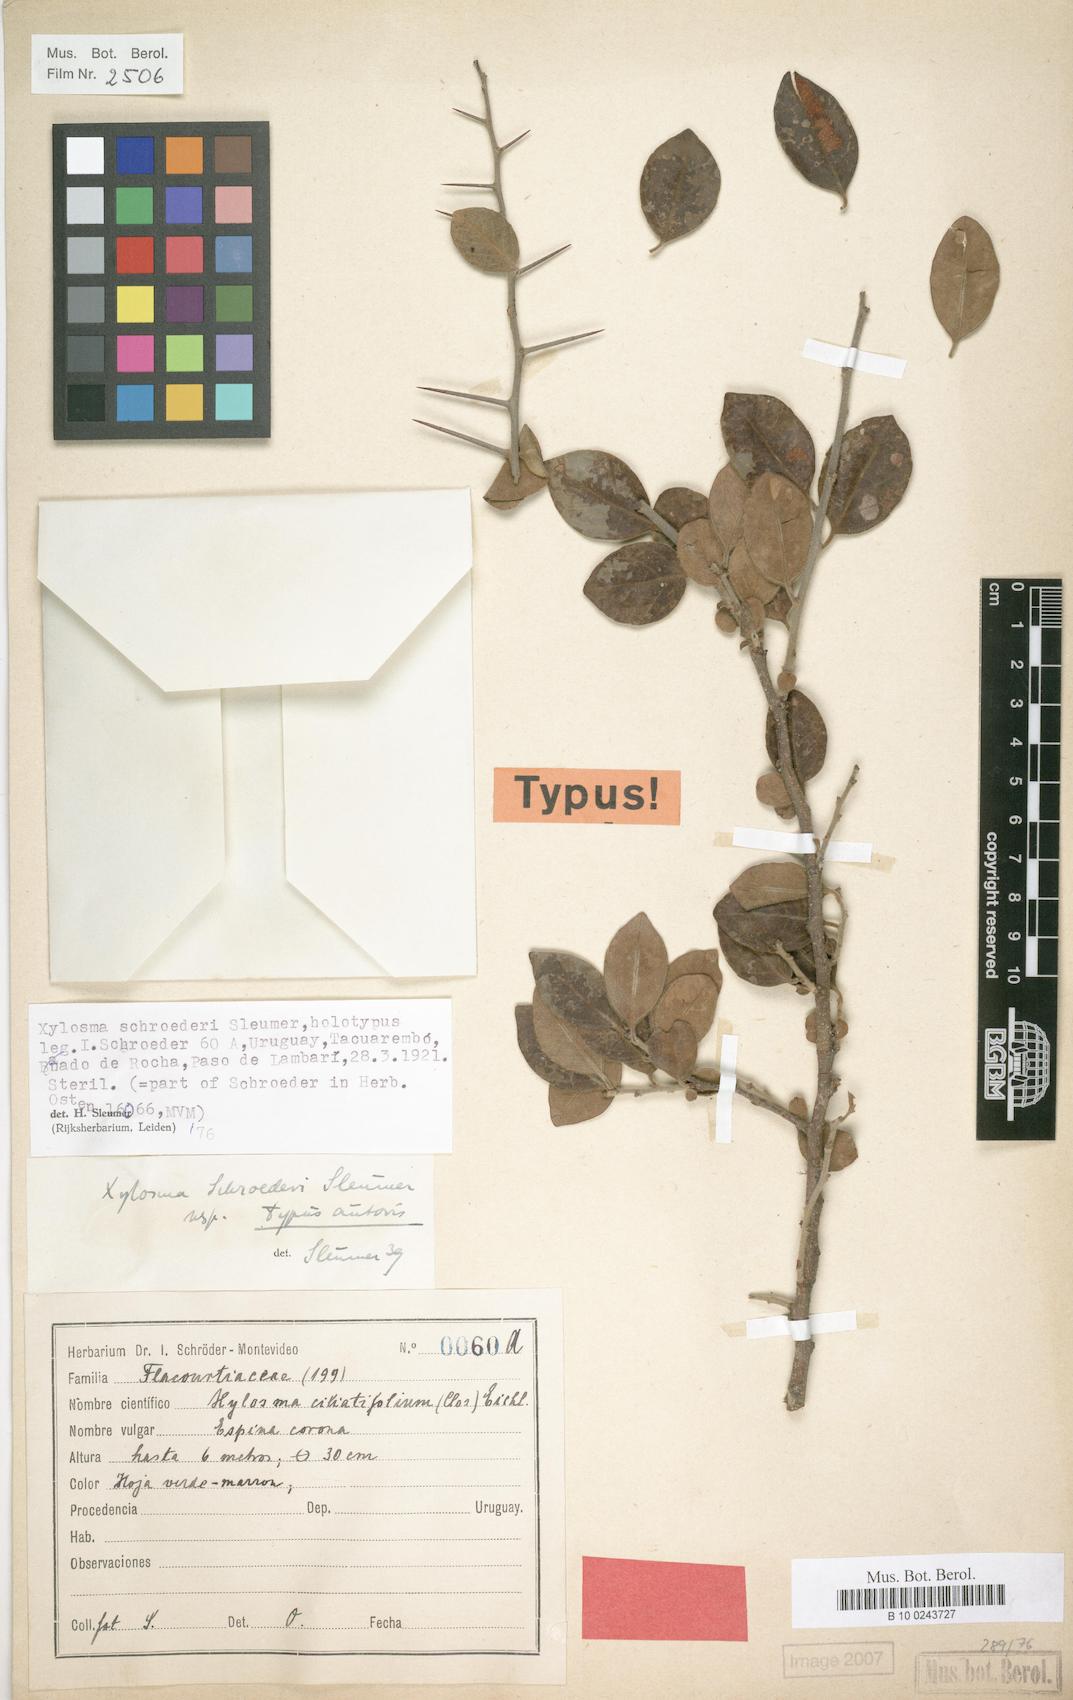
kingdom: Plantae
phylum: Tracheophyta
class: Magnoliopsida
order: Malpighiales
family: Salicaceae
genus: Xylosma
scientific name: Xylosma schroederi
